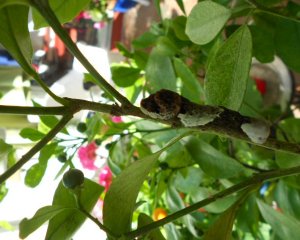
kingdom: Animalia
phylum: Arthropoda
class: Insecta
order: Lepidoptera
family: Papilionidae
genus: Papilio
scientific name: Papilio cresphontes
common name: Eastern Giant Swallowtail
